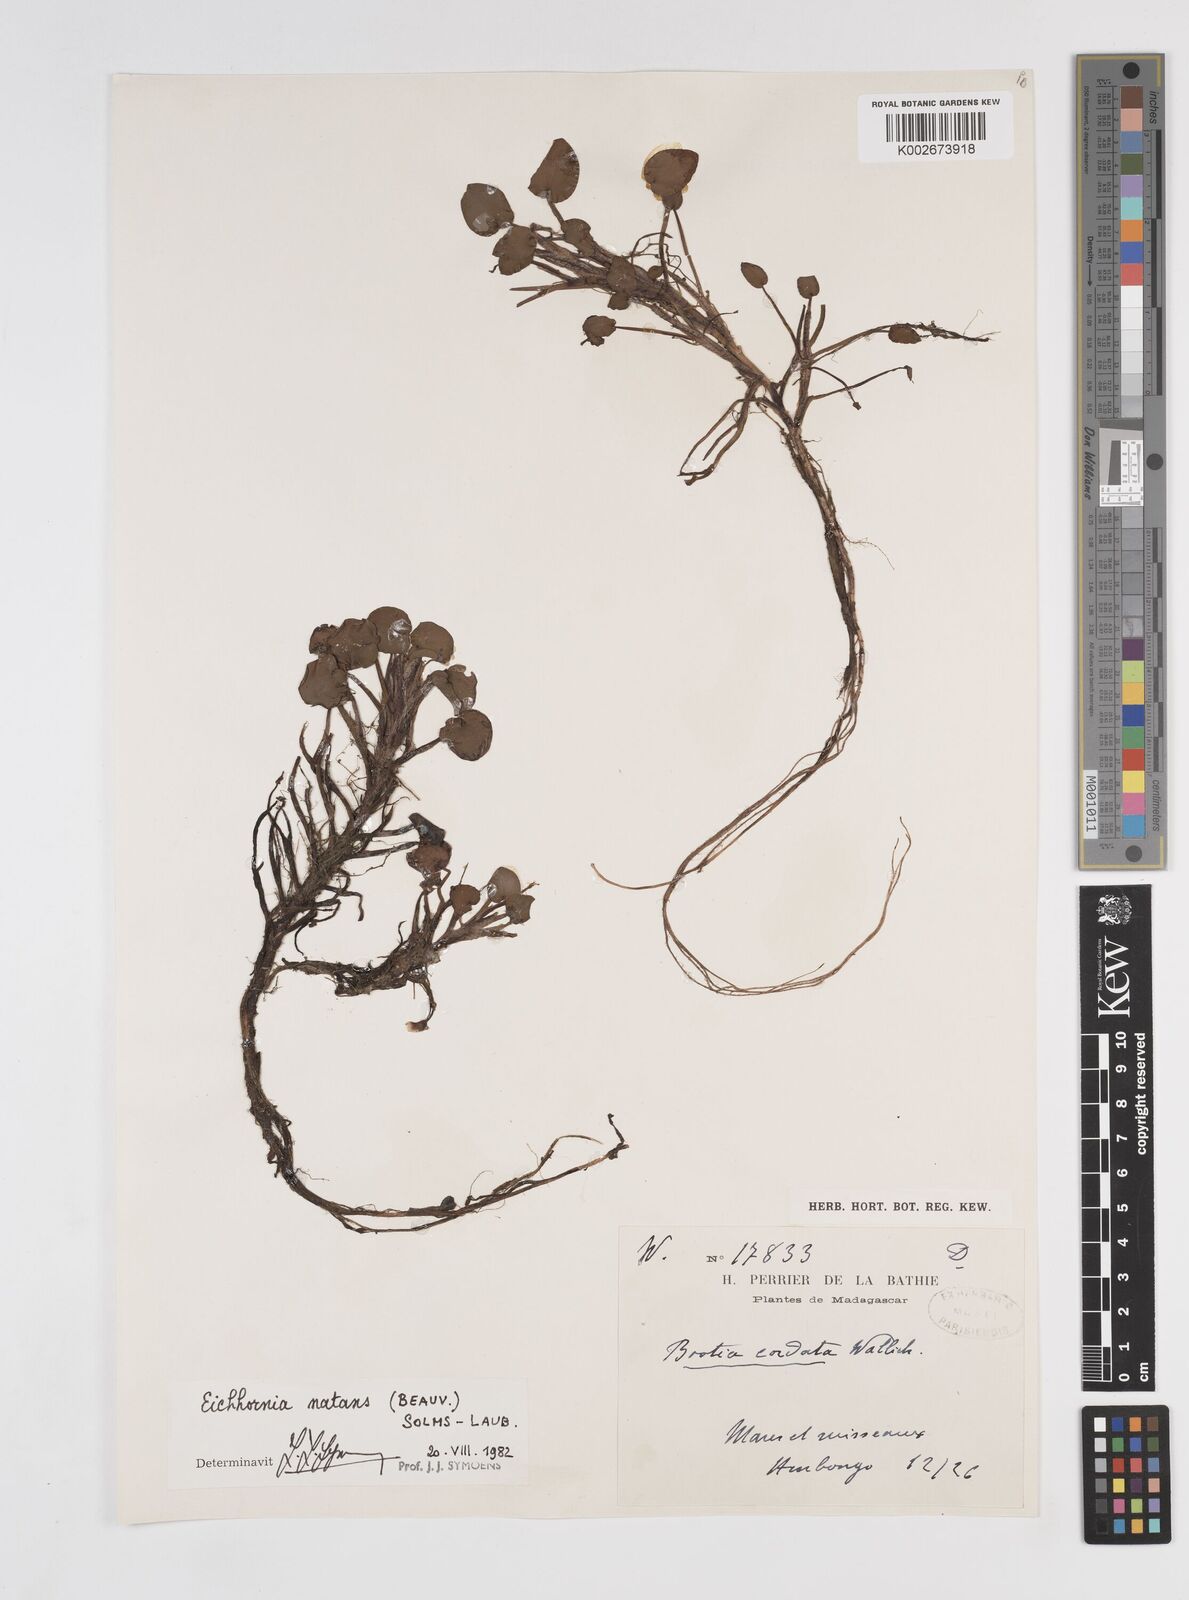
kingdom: Plantae
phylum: Tracheophyta
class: Liliopsida
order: Commelinales
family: Pontederiaceae
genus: Pontederia
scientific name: Pontederia natans
